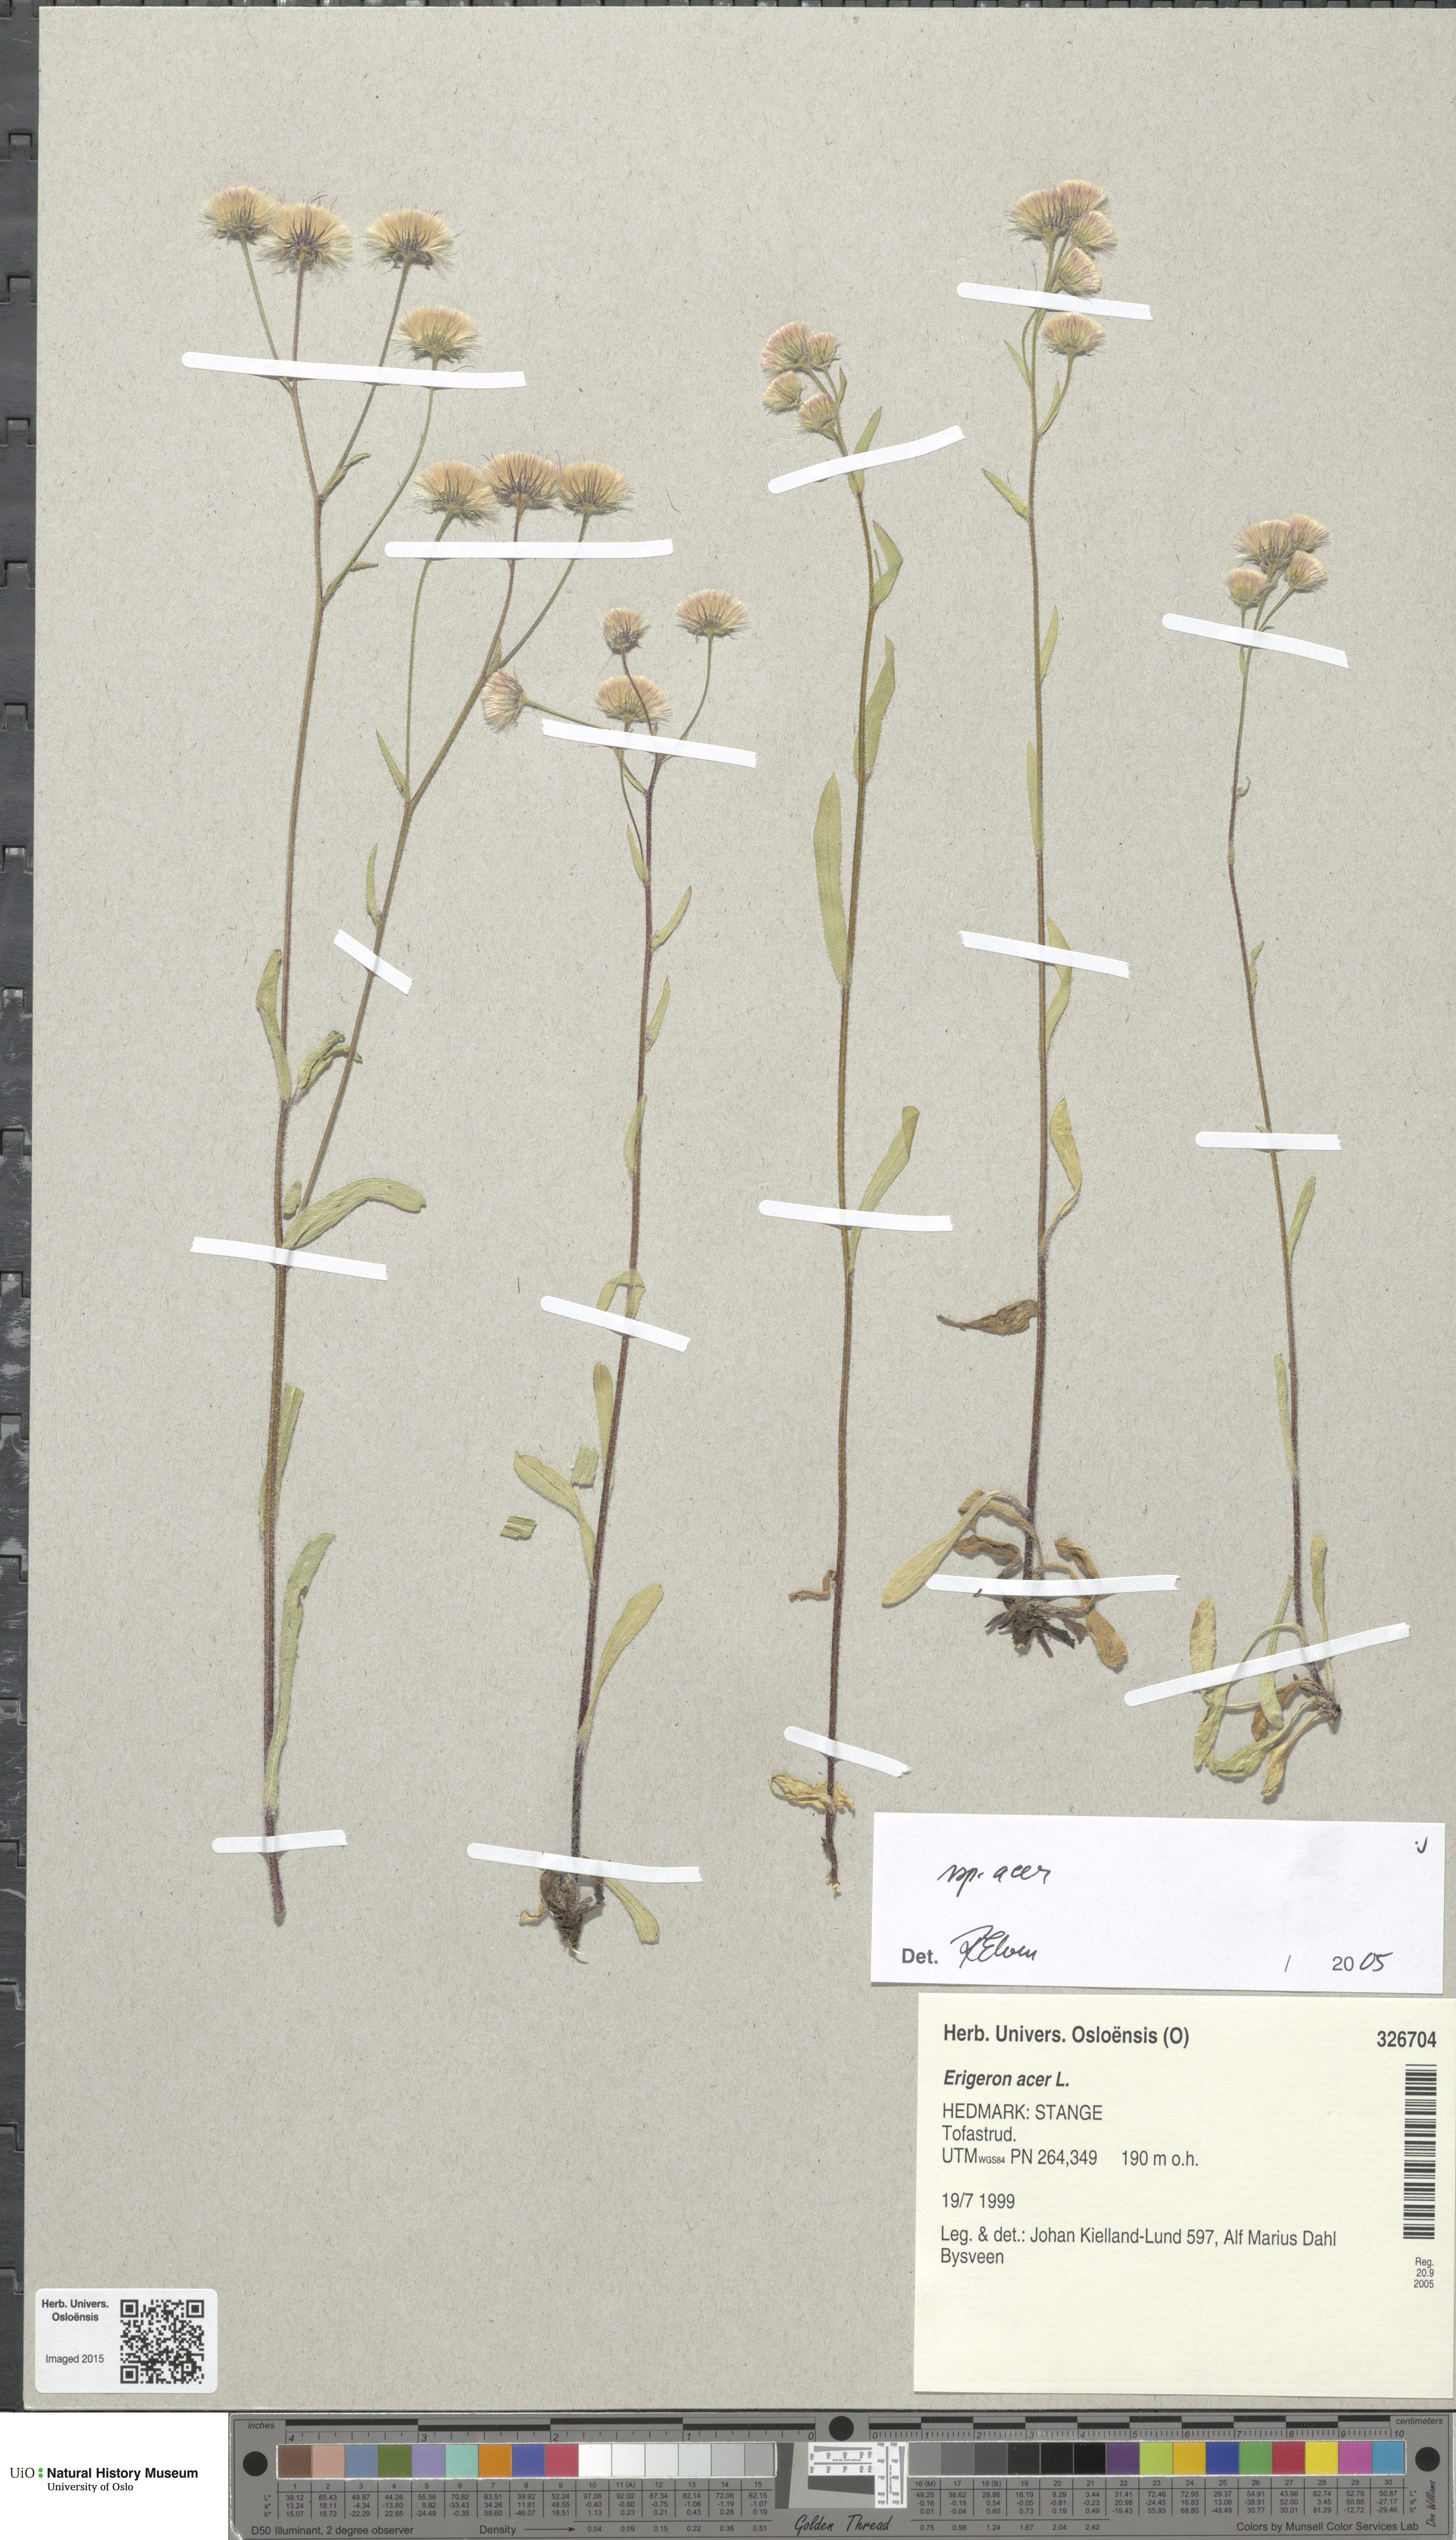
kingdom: Plantae
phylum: Tracheophyta
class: Magnoliopsida
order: Asterales
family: Asteraceae
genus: Erigeron
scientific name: Erigeron acris
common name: Blue fleabane
